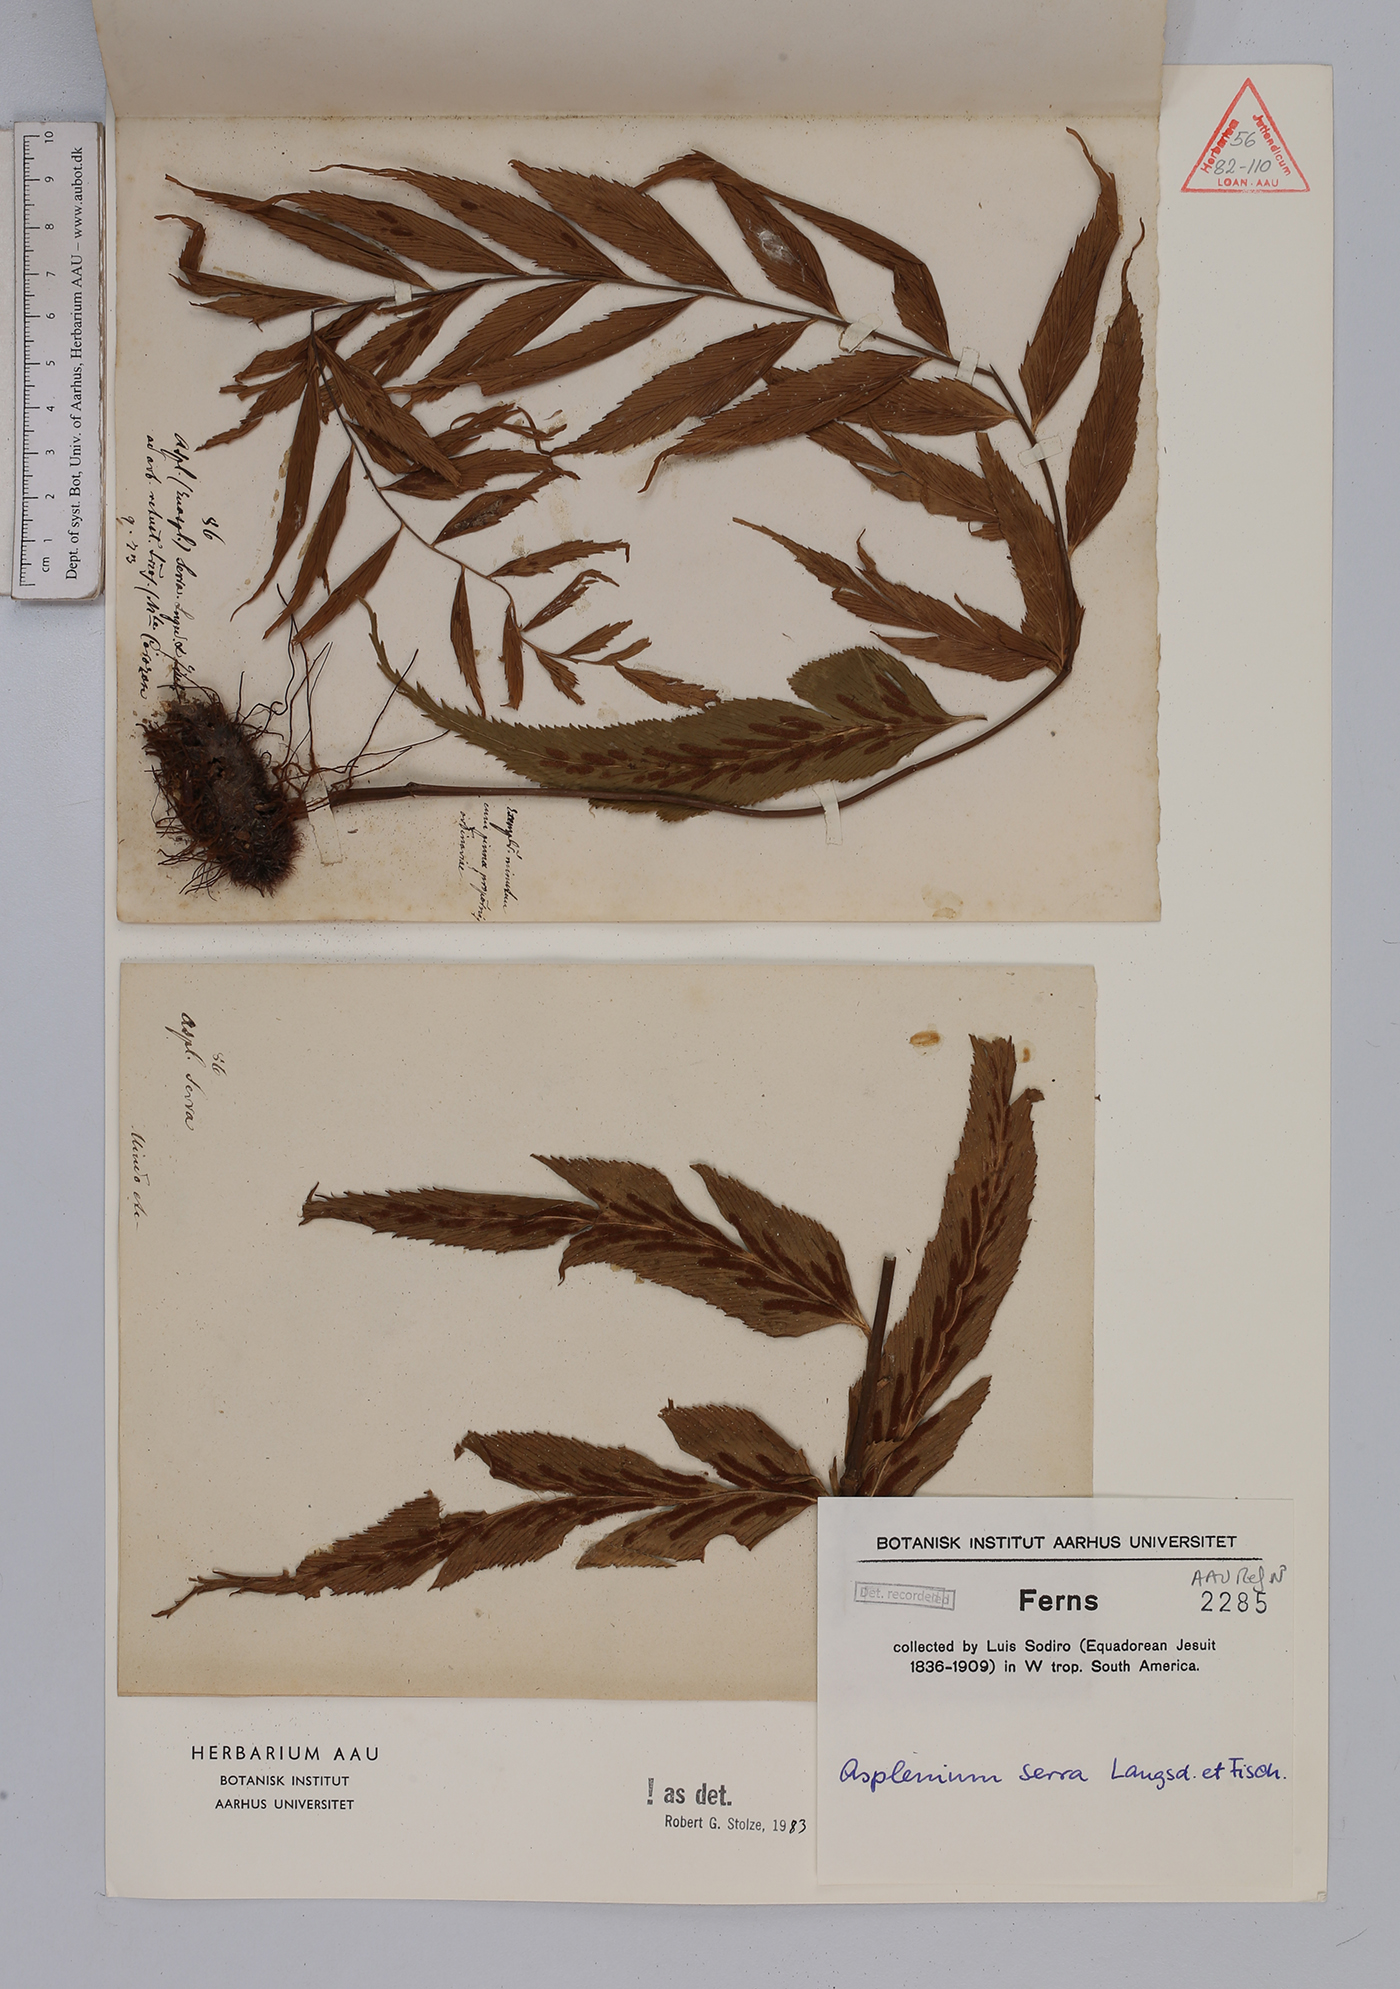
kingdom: Plantae
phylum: Tracheophyta
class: Polypodiopsida
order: Polypodiales
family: Aspleniaceae
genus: Asplenium
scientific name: Asplenium serra
